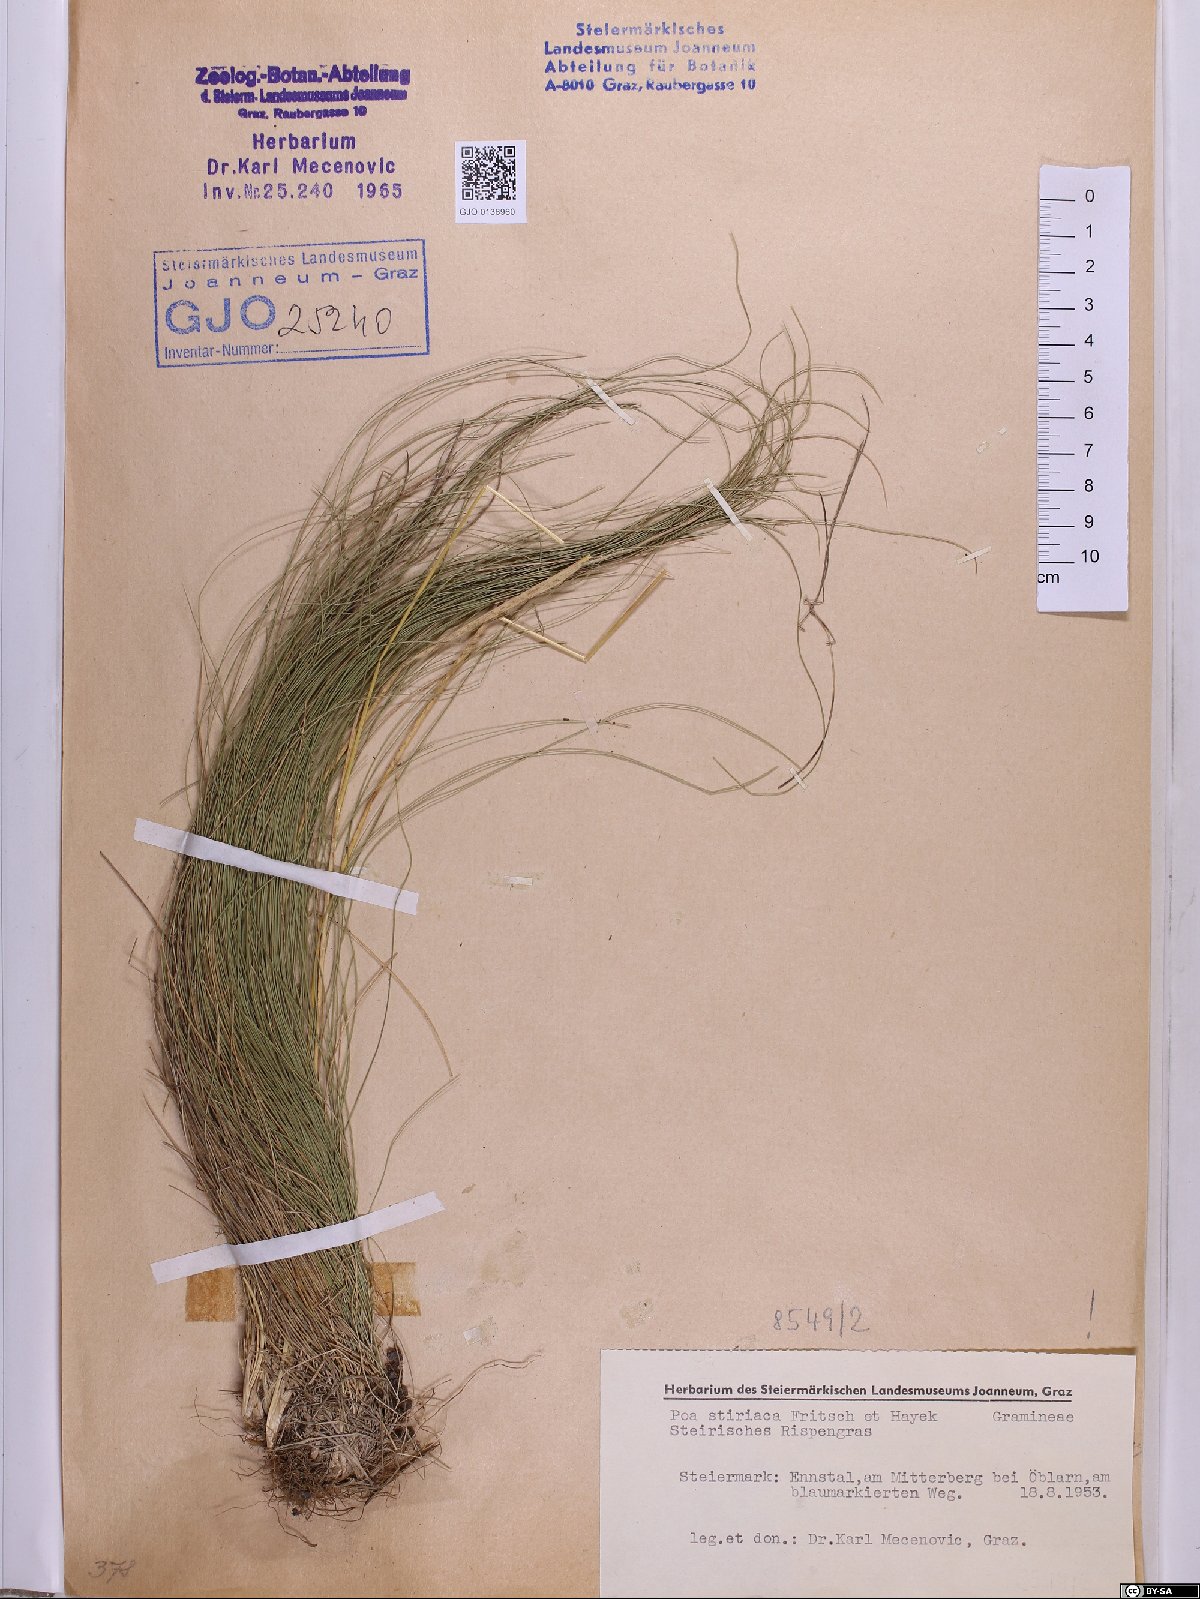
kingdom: Plantae
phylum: Tracheophyta
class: Liliopsida
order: Poales
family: Poaceae
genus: Poa
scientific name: Poa stiriaca
